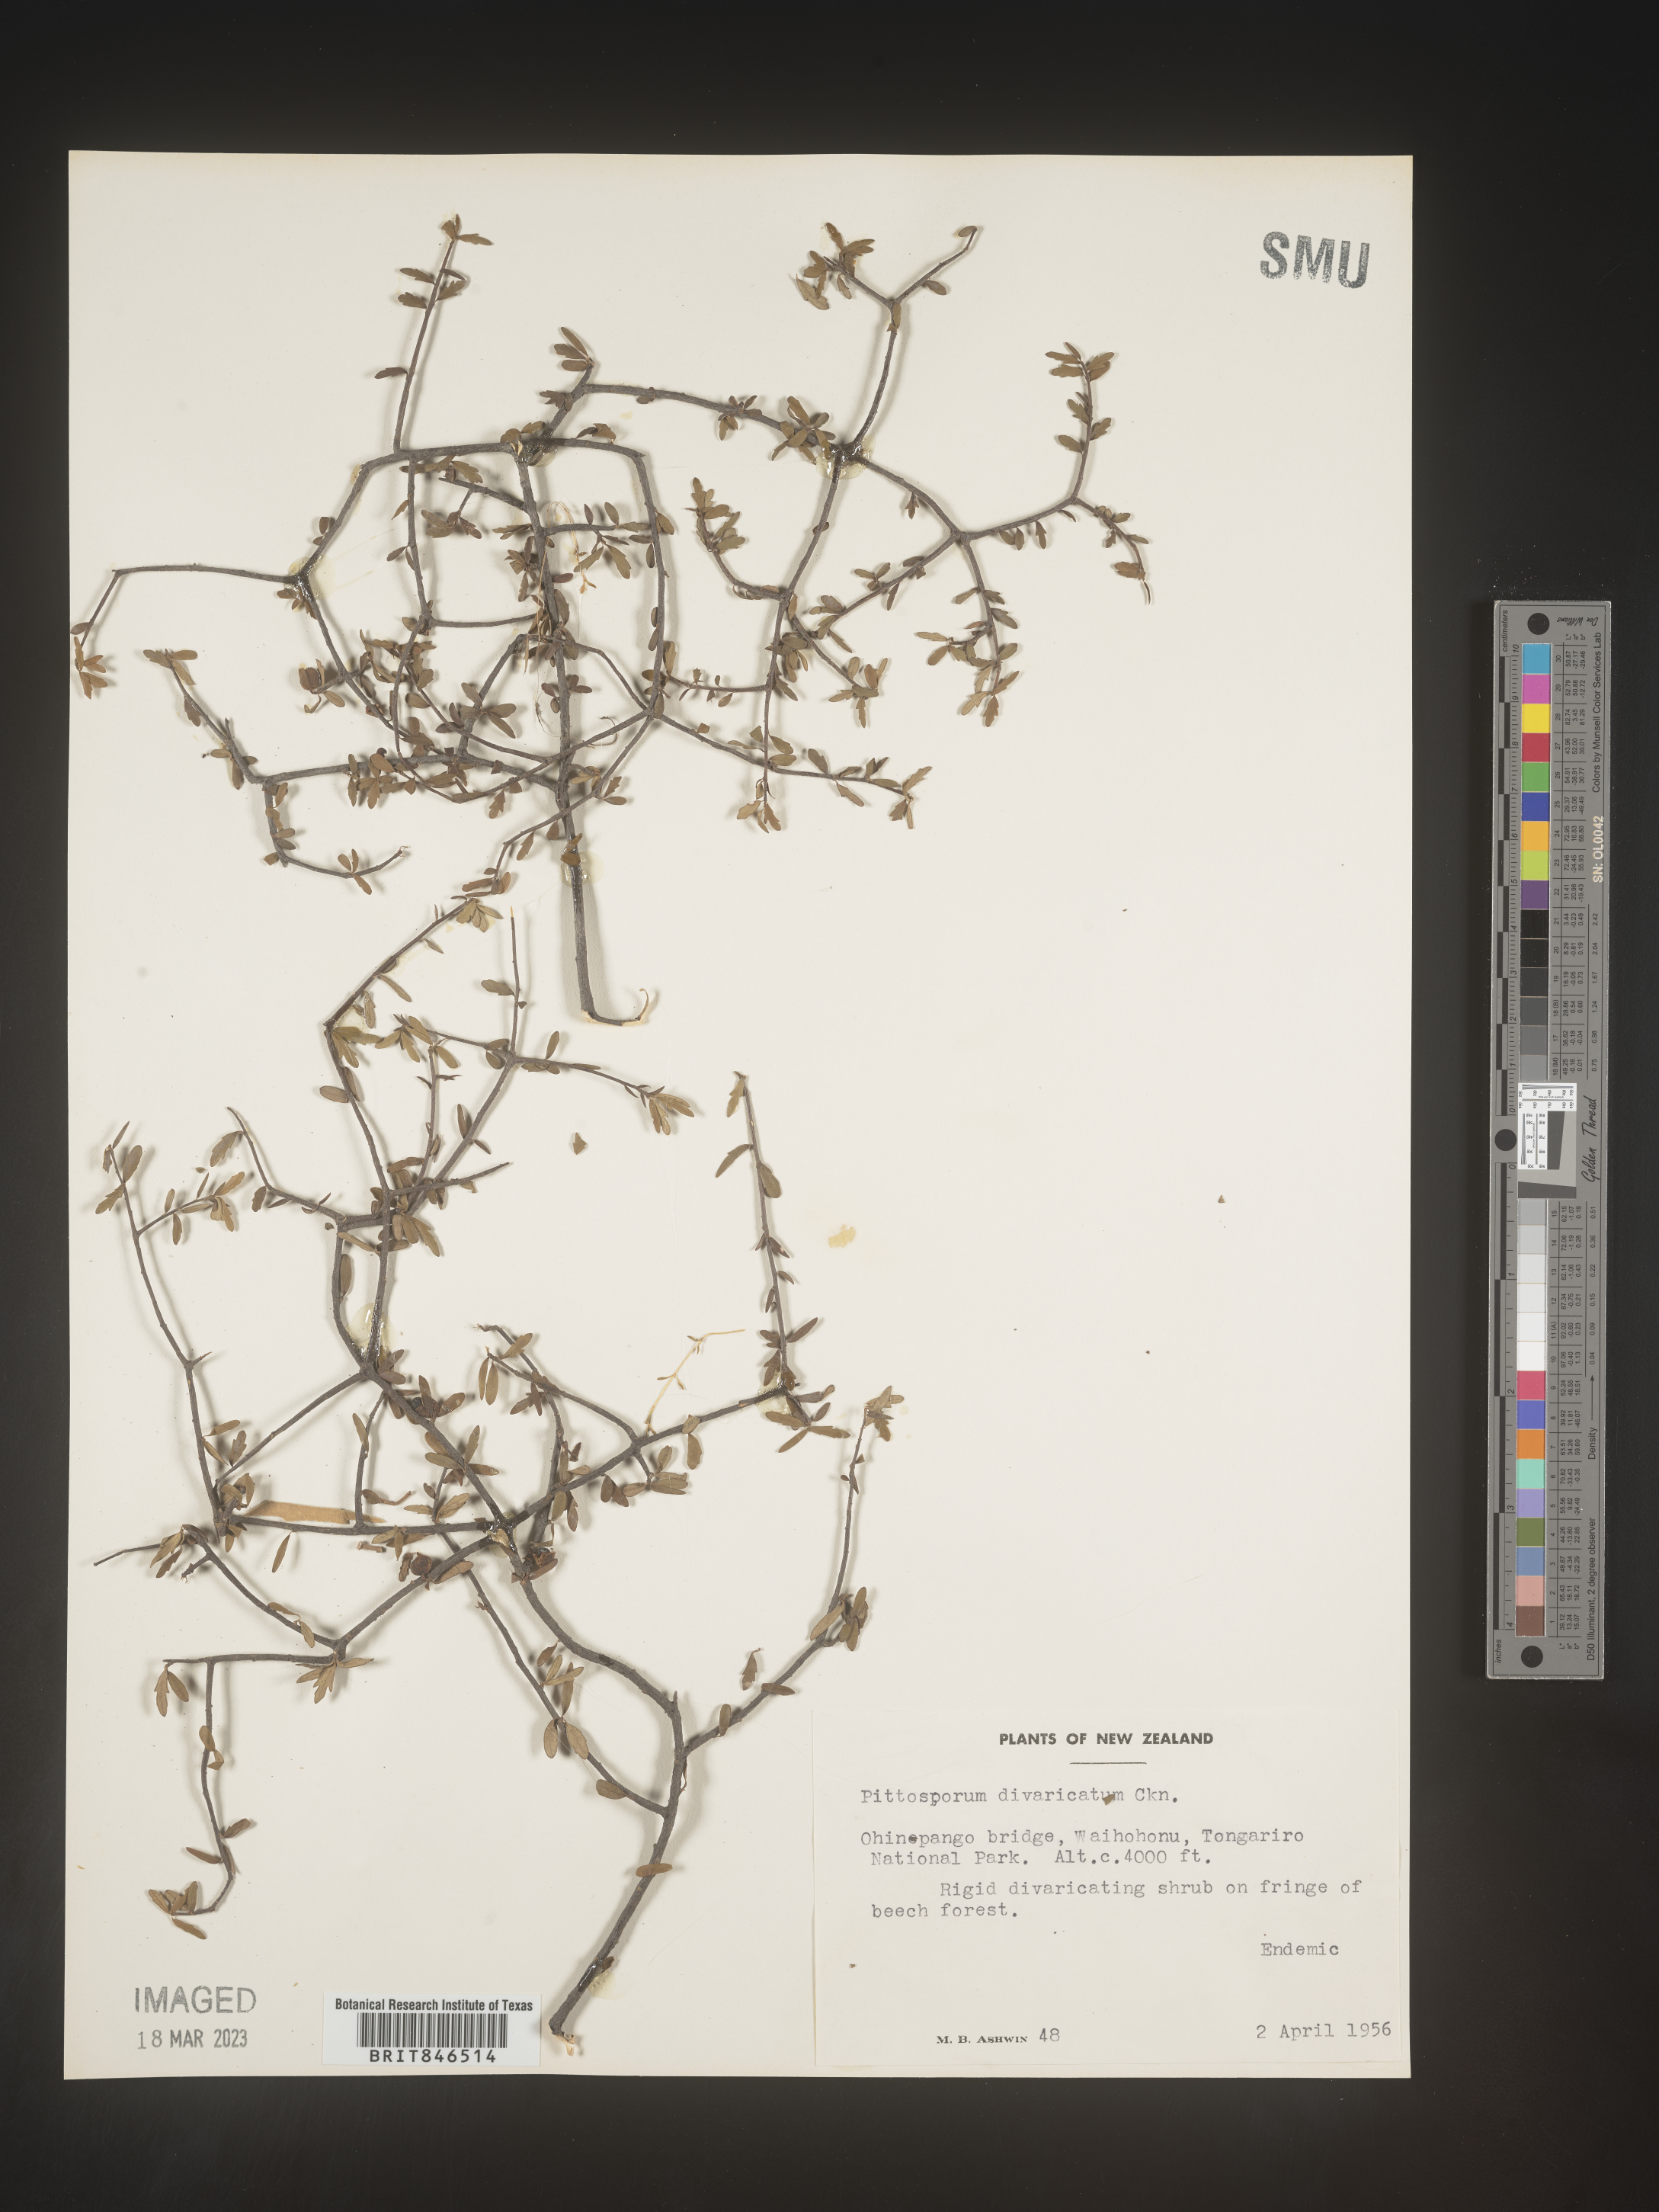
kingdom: Plantae
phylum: Tracheophyta
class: Magnoliopsida
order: Apiales
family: Pittosporaceae
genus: Pittosporum
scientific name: Pittosporum
